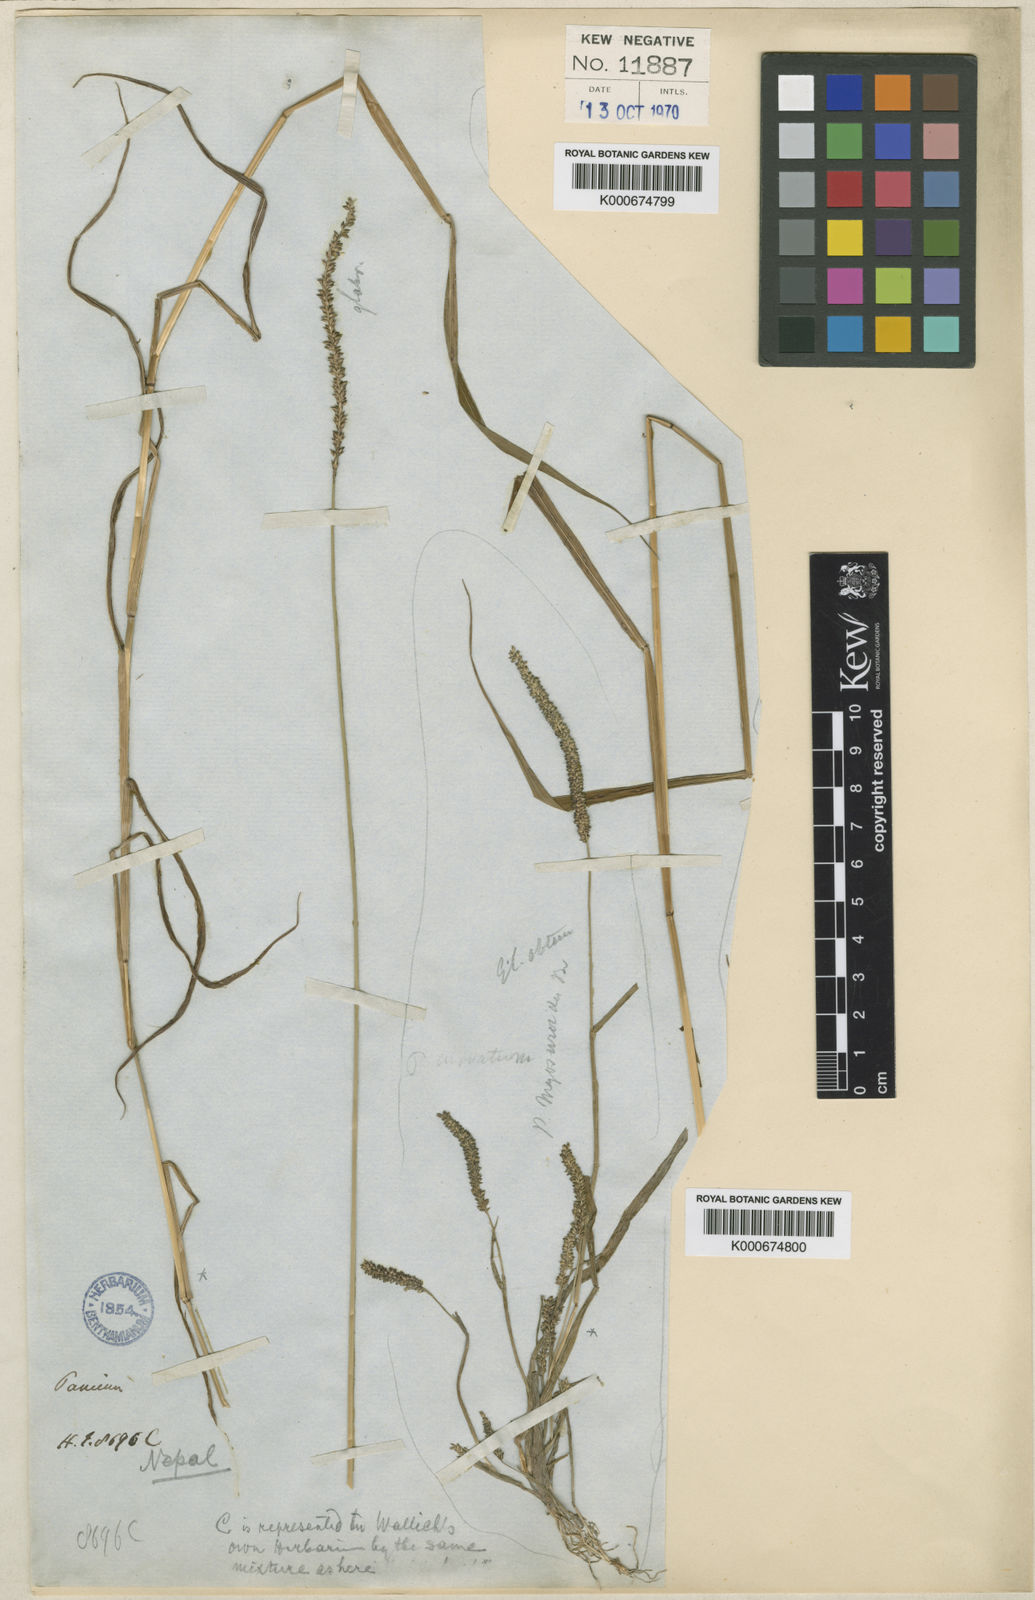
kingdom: Plantae
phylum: Tracheophyta
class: Liliopsida
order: Poales
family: Poaceae
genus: Sacciolepis
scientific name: Sacciolepis indica
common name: Glenwoodgrass
